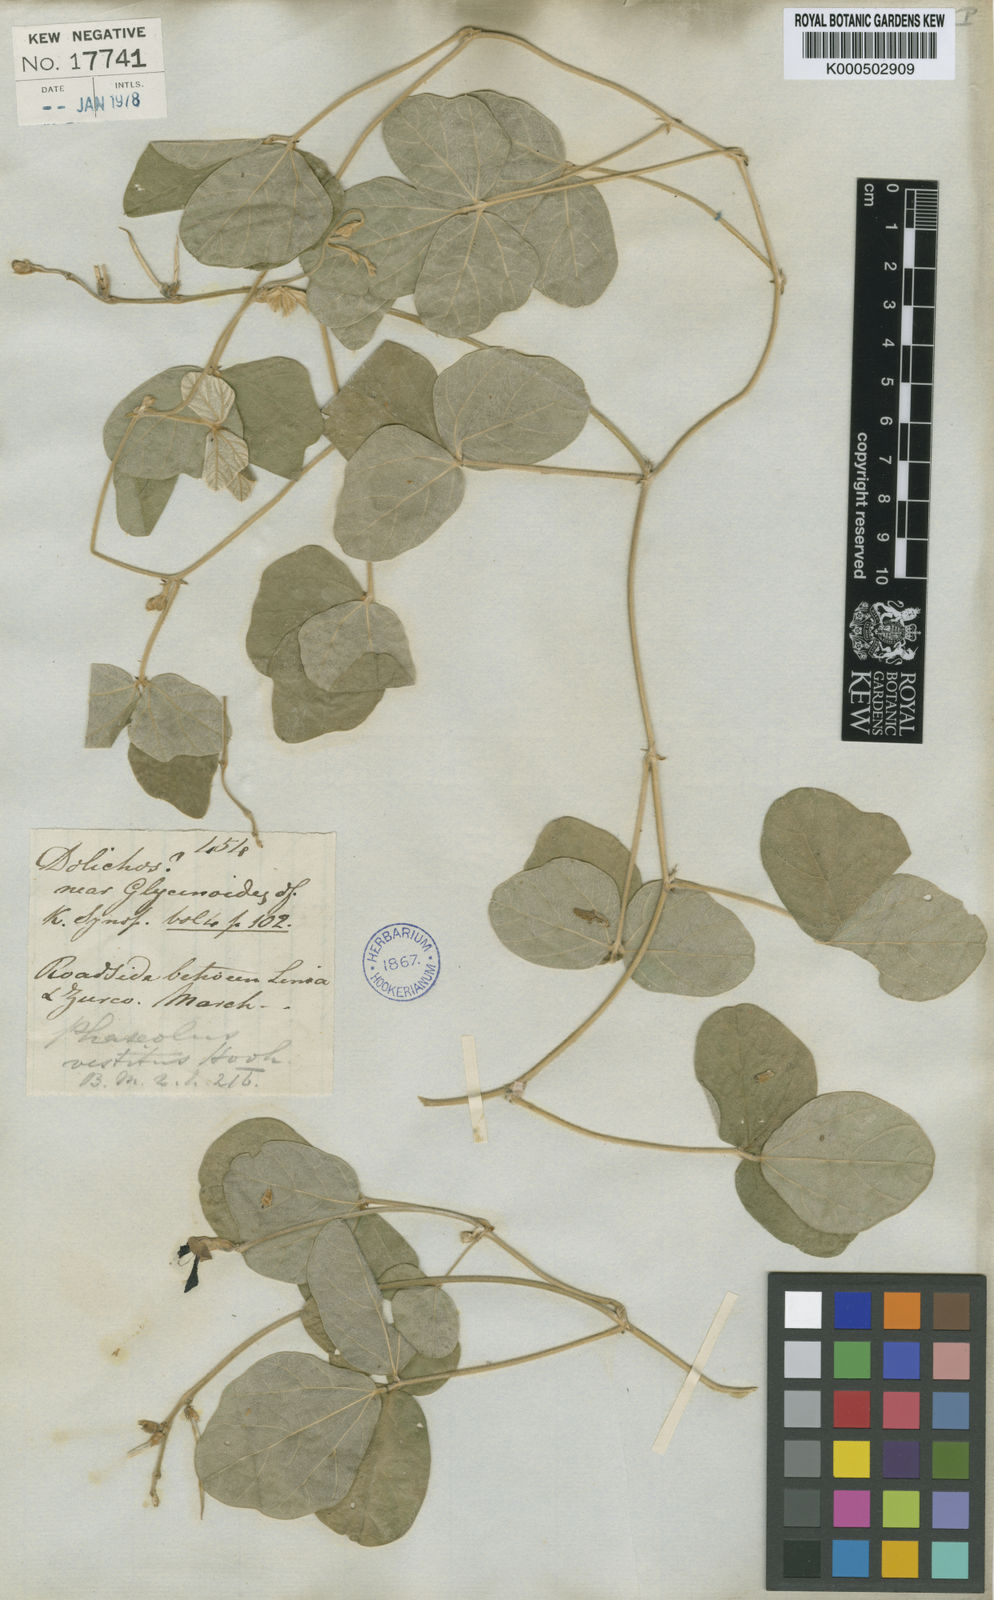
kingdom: Plantae
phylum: Tracheophyta
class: Magnoliopsida
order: Fabales
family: Fabaceae
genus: Macroptilium
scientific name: Macroptilium
